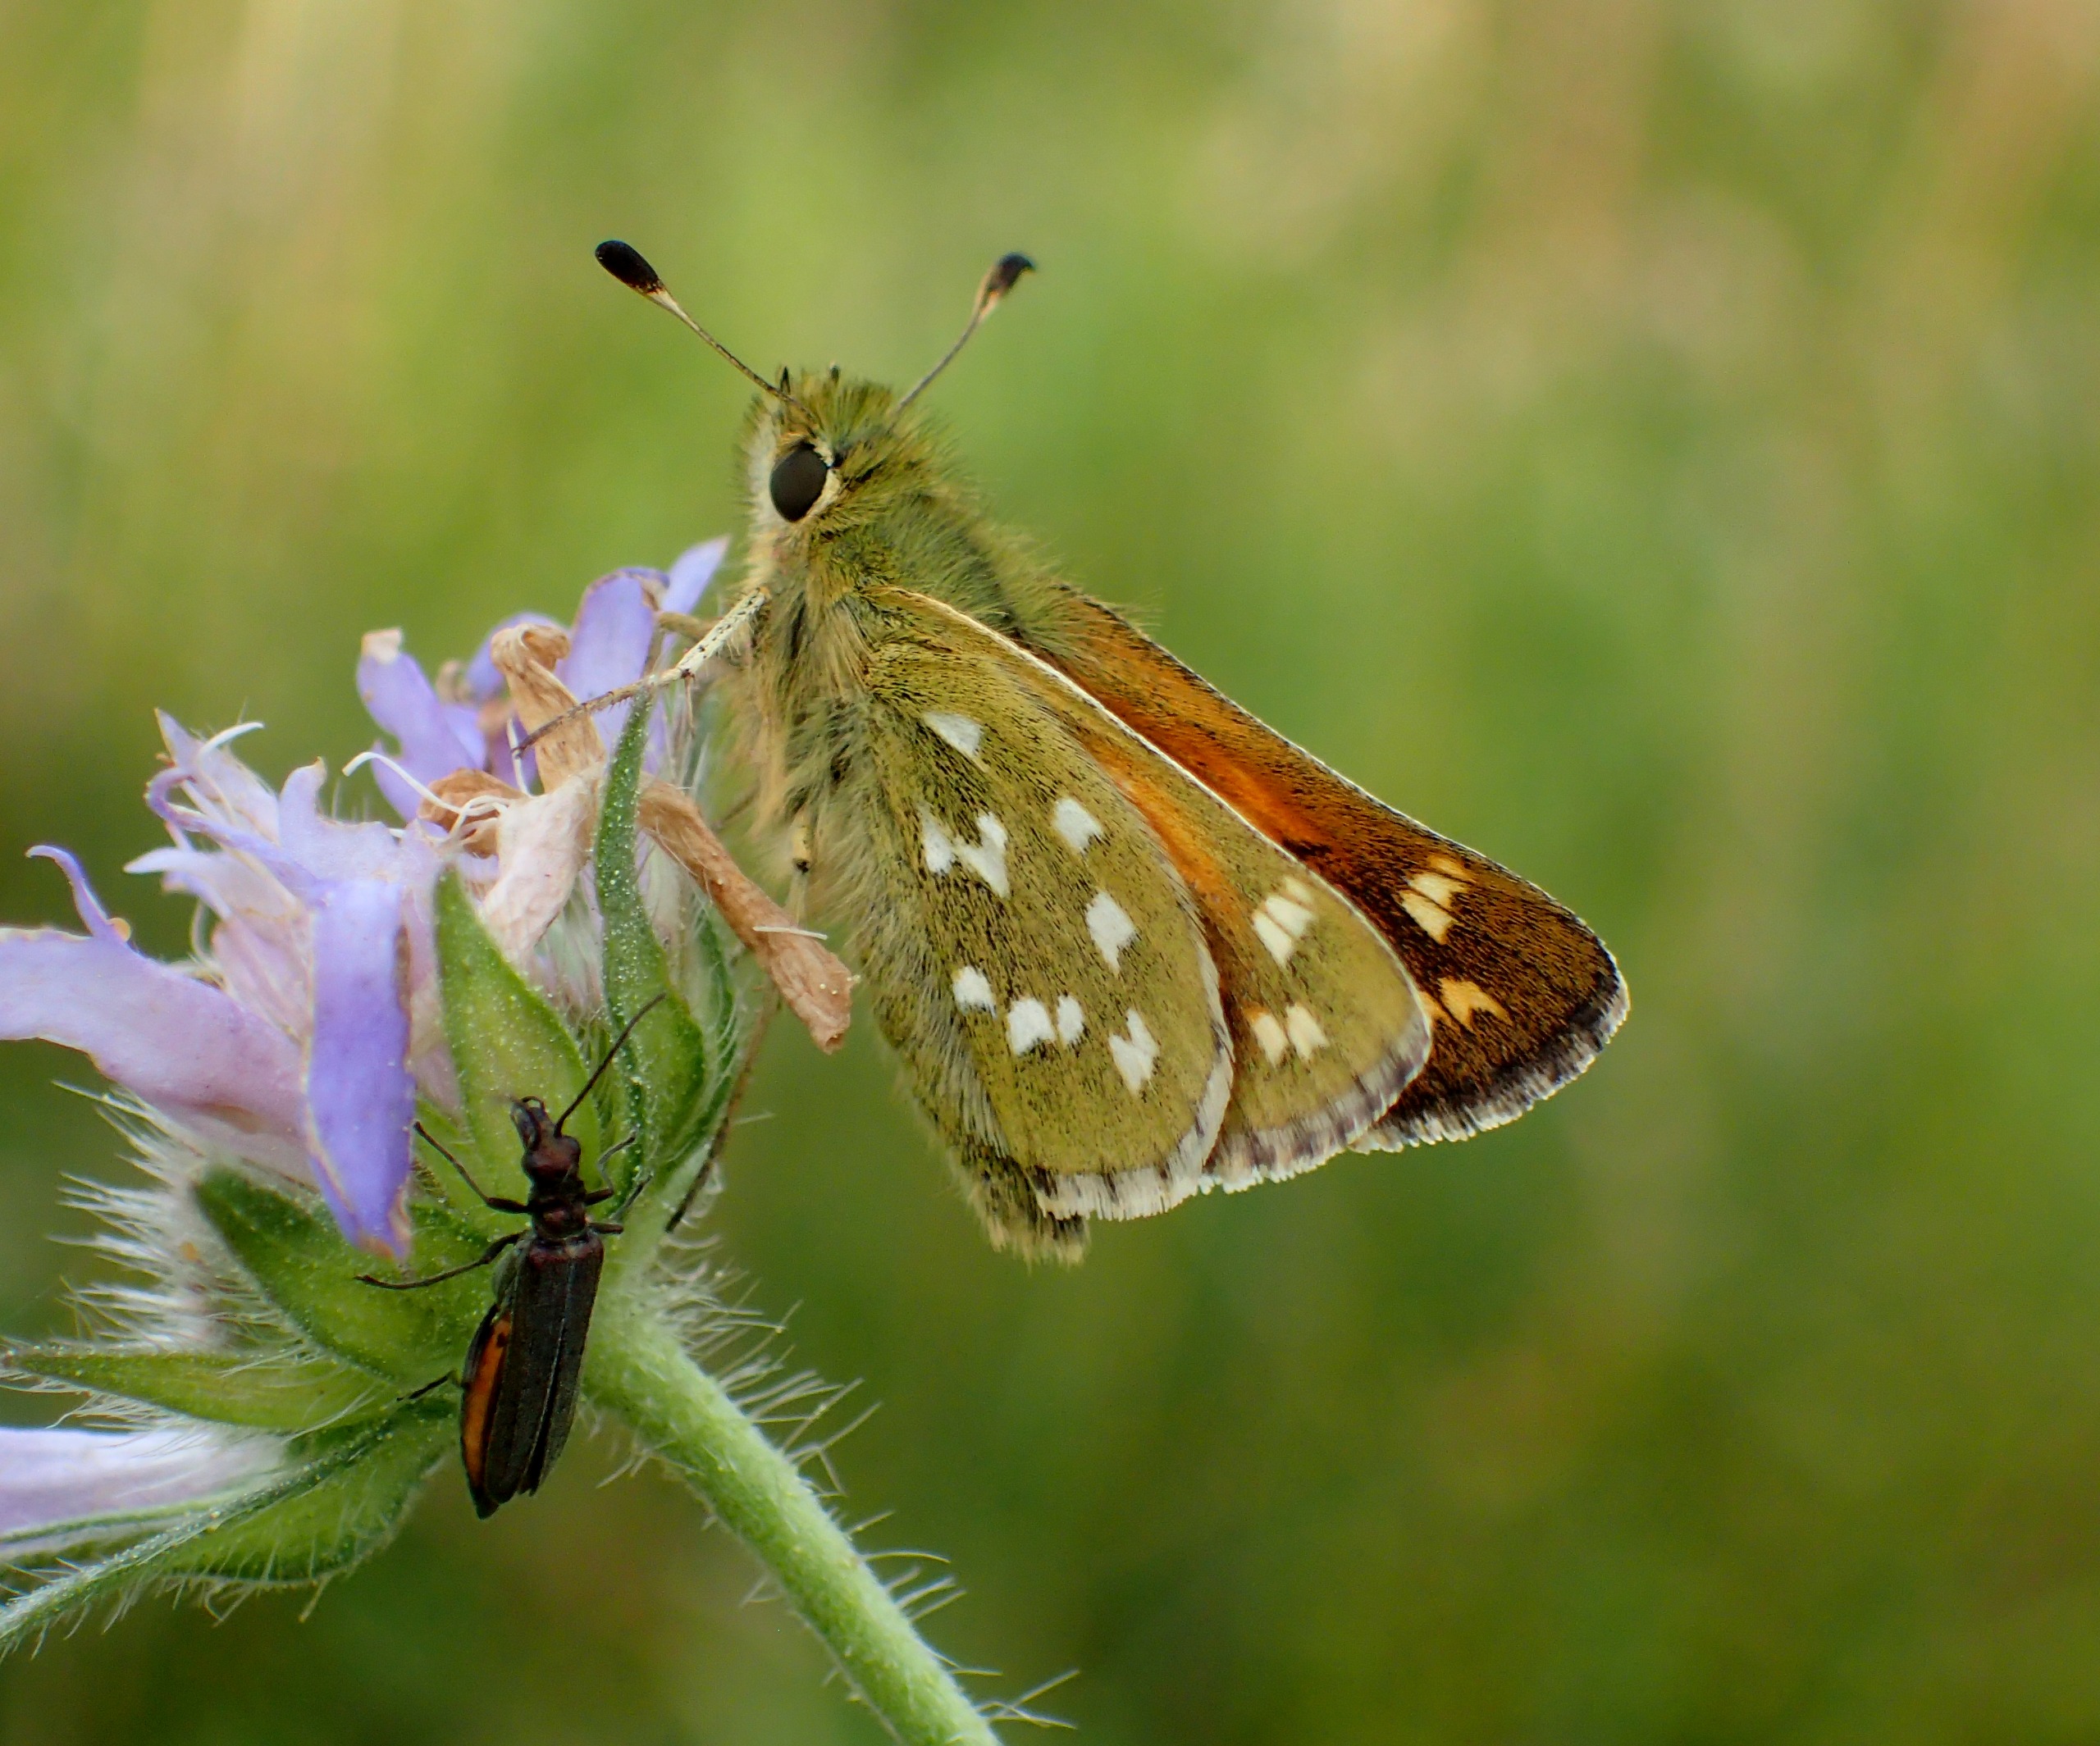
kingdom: Animalia
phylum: Arthropoda
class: Insecta
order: Lepidoptera
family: Hesperiidae
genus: Hesperia
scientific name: Hesperia comma
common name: Kommabredpande
